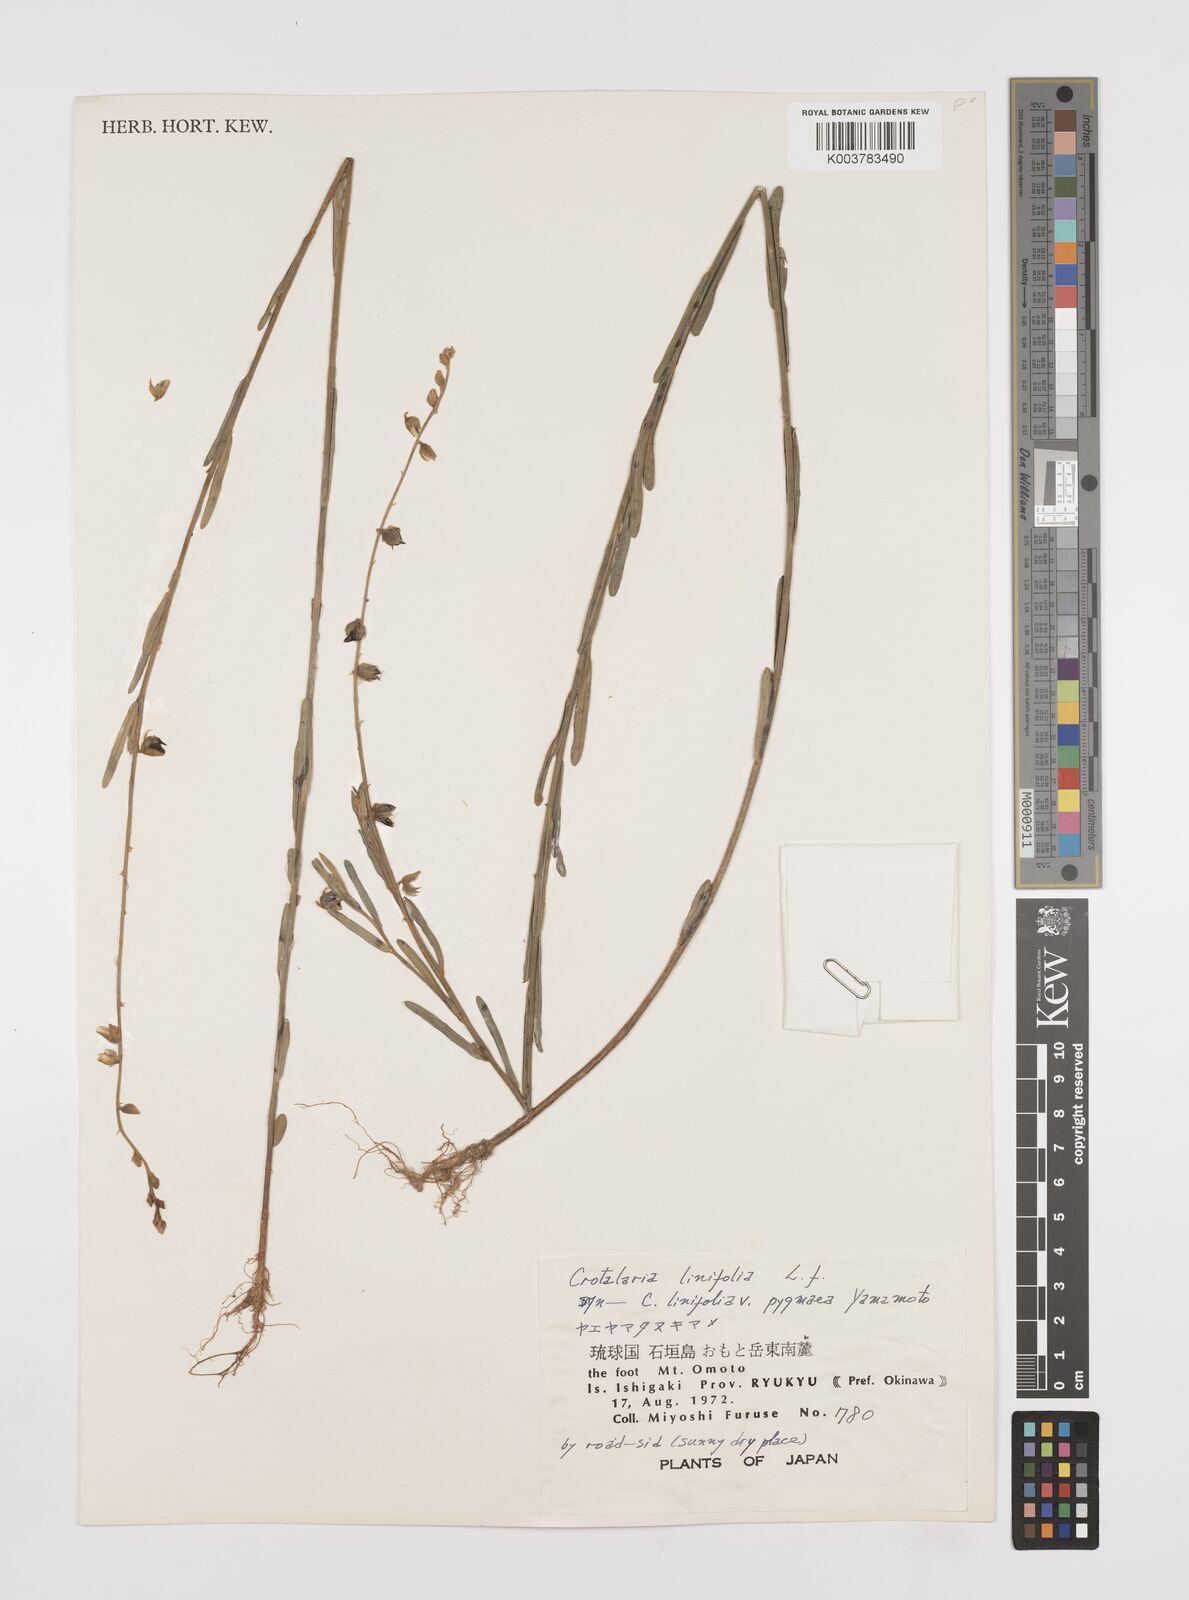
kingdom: Plantae
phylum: Tracheophyta
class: Magnoliopsida
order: Fabales
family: Fabaceae
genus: Crotalaria
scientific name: Crotalaria linifolia
